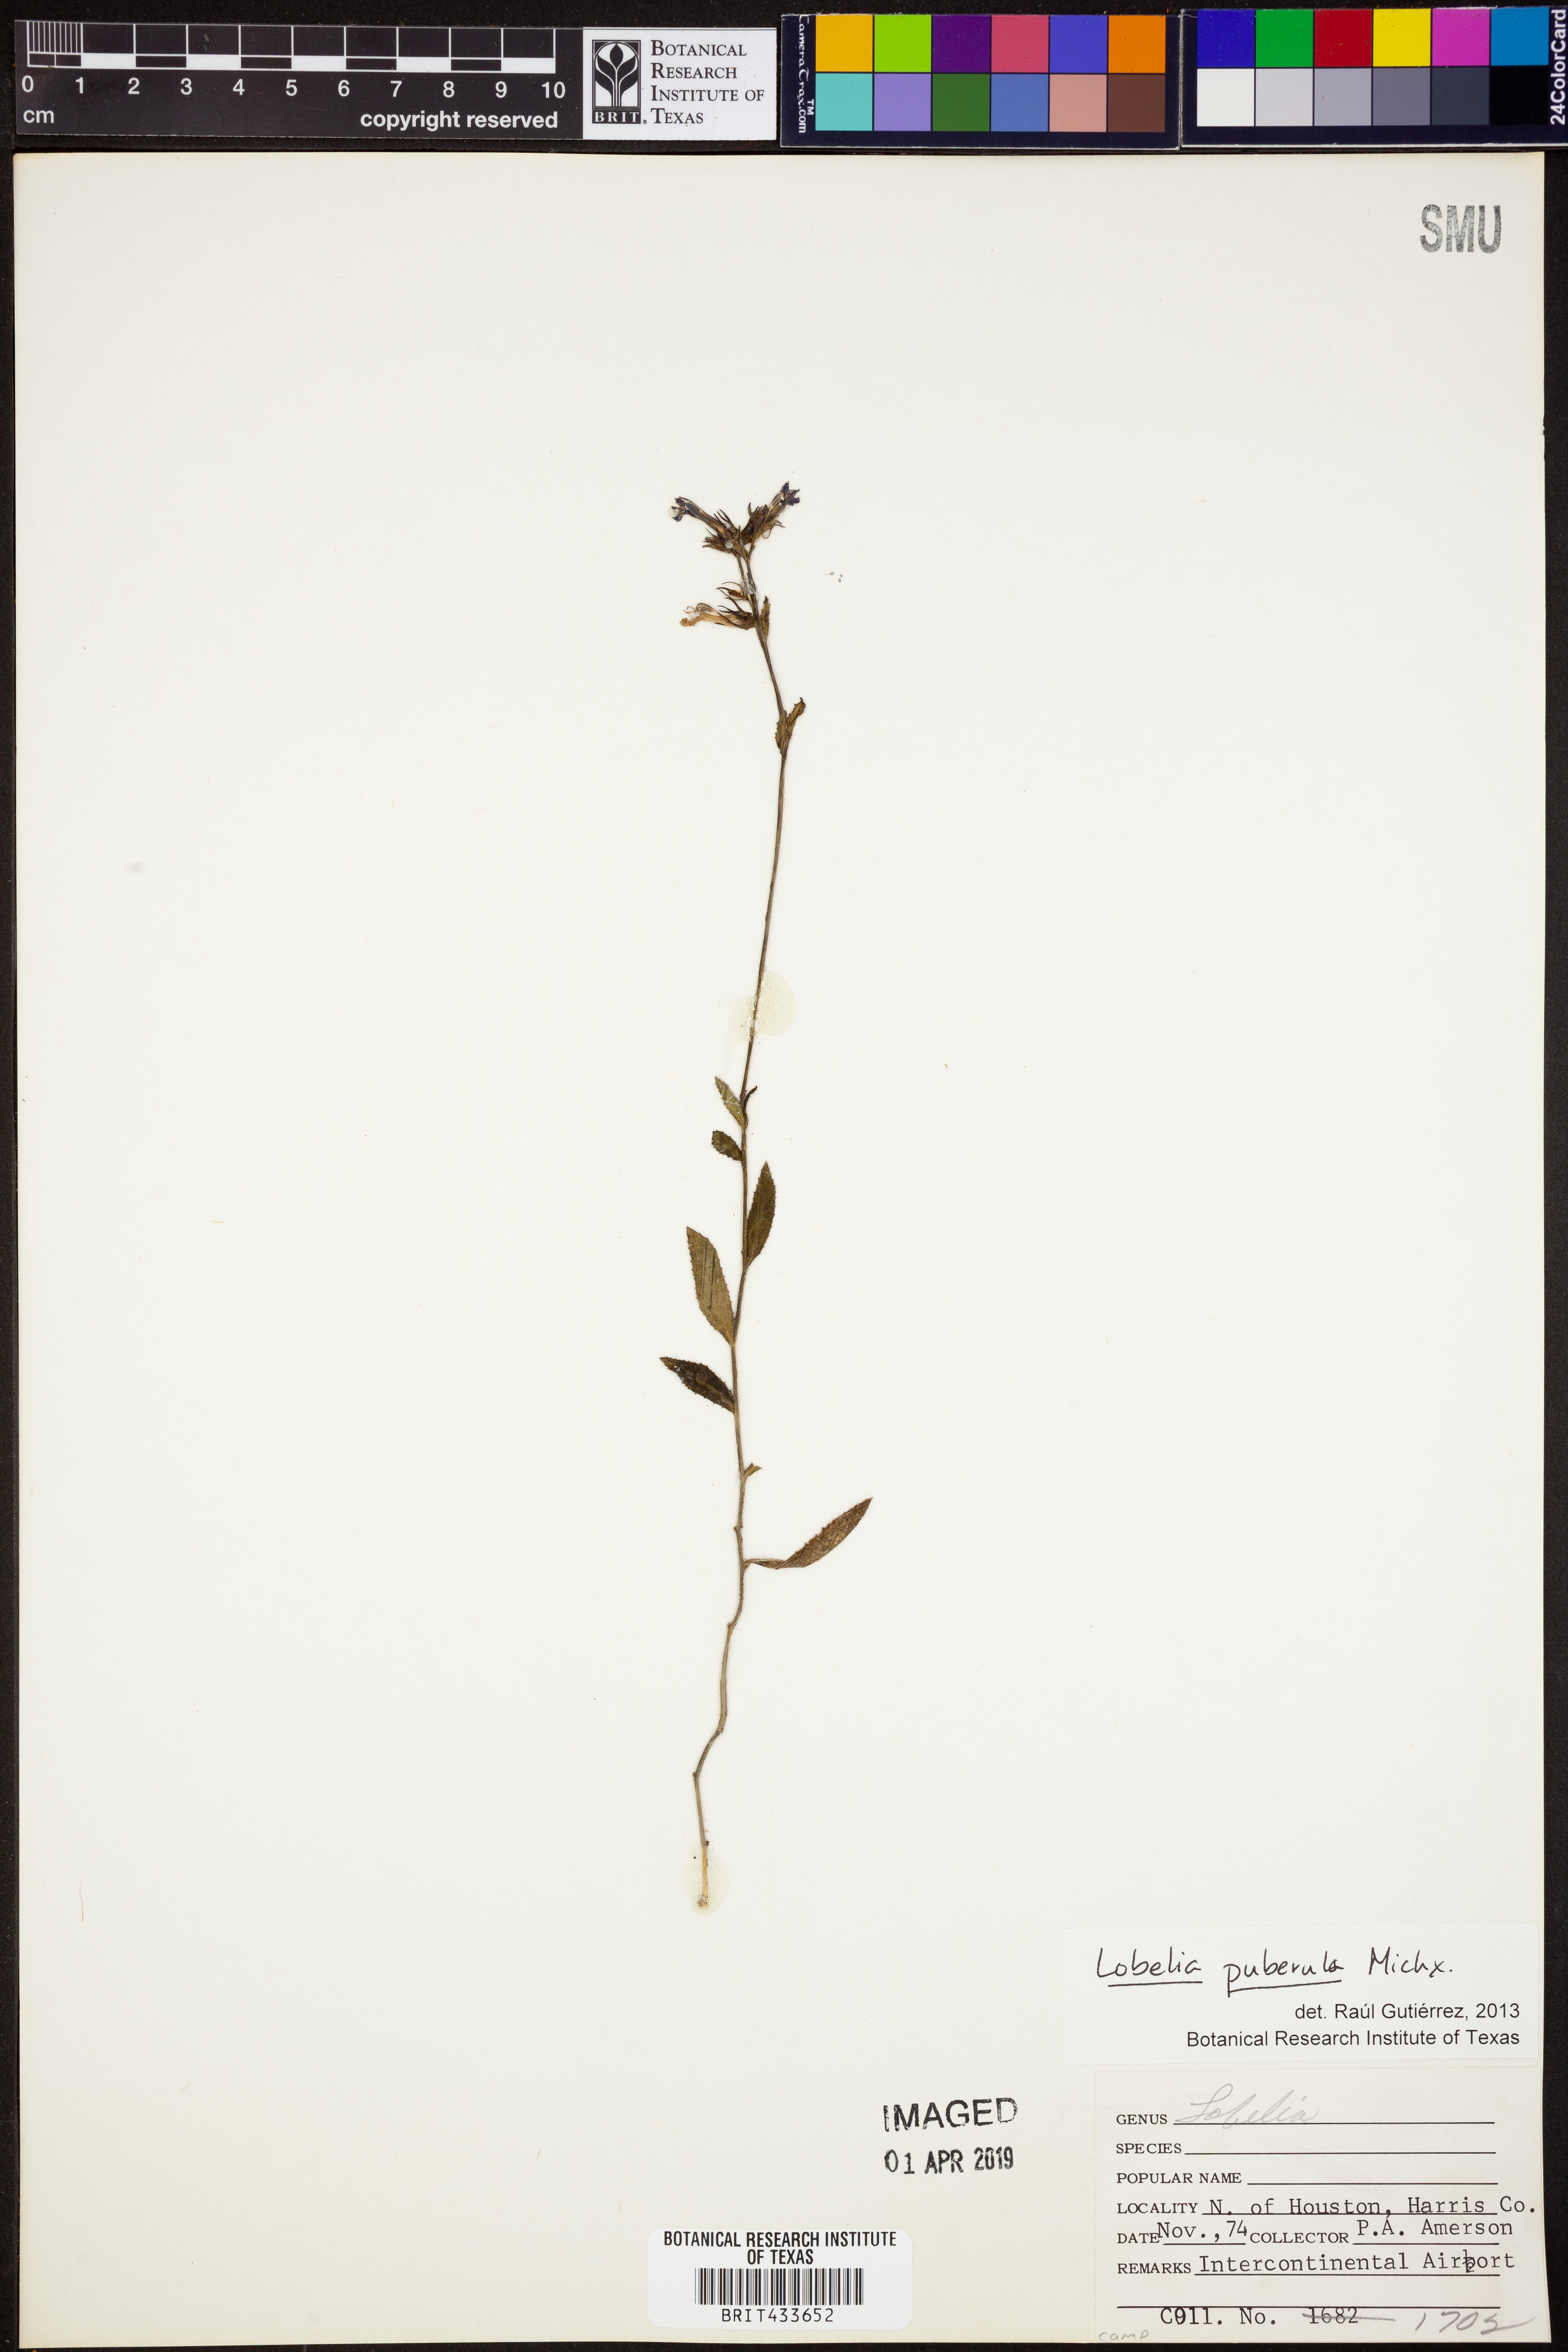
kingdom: Plantae
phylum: Tracheophyta
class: Magnoliopsida
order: Asterales
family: Campanulaceae
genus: Lobelia
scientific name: Lobelia puberula
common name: Purple dewdrop
